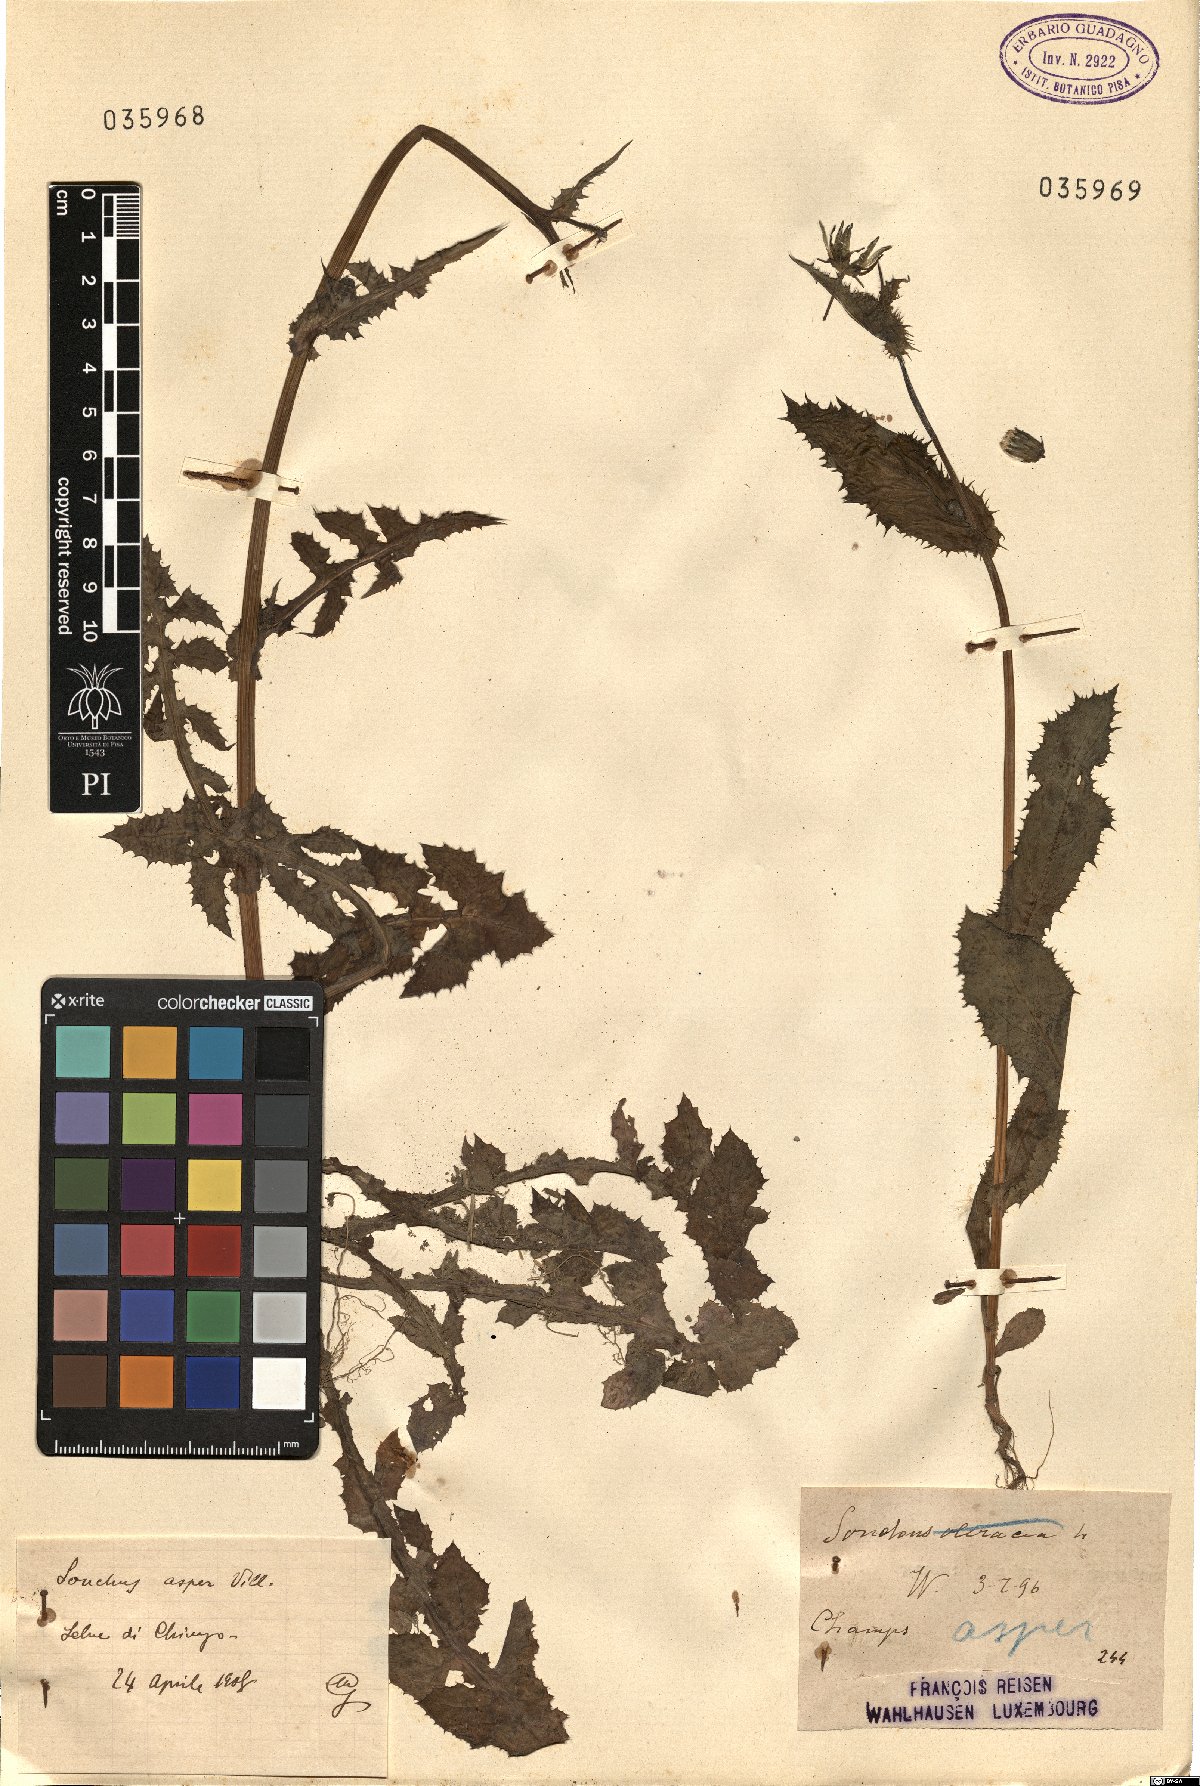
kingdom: Plantae
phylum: Tracheophyta
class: Magnoliopsida
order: Asterales
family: Asteraceae
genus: Sonchus
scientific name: Sonchus asper
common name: Prickly sow-thistle
